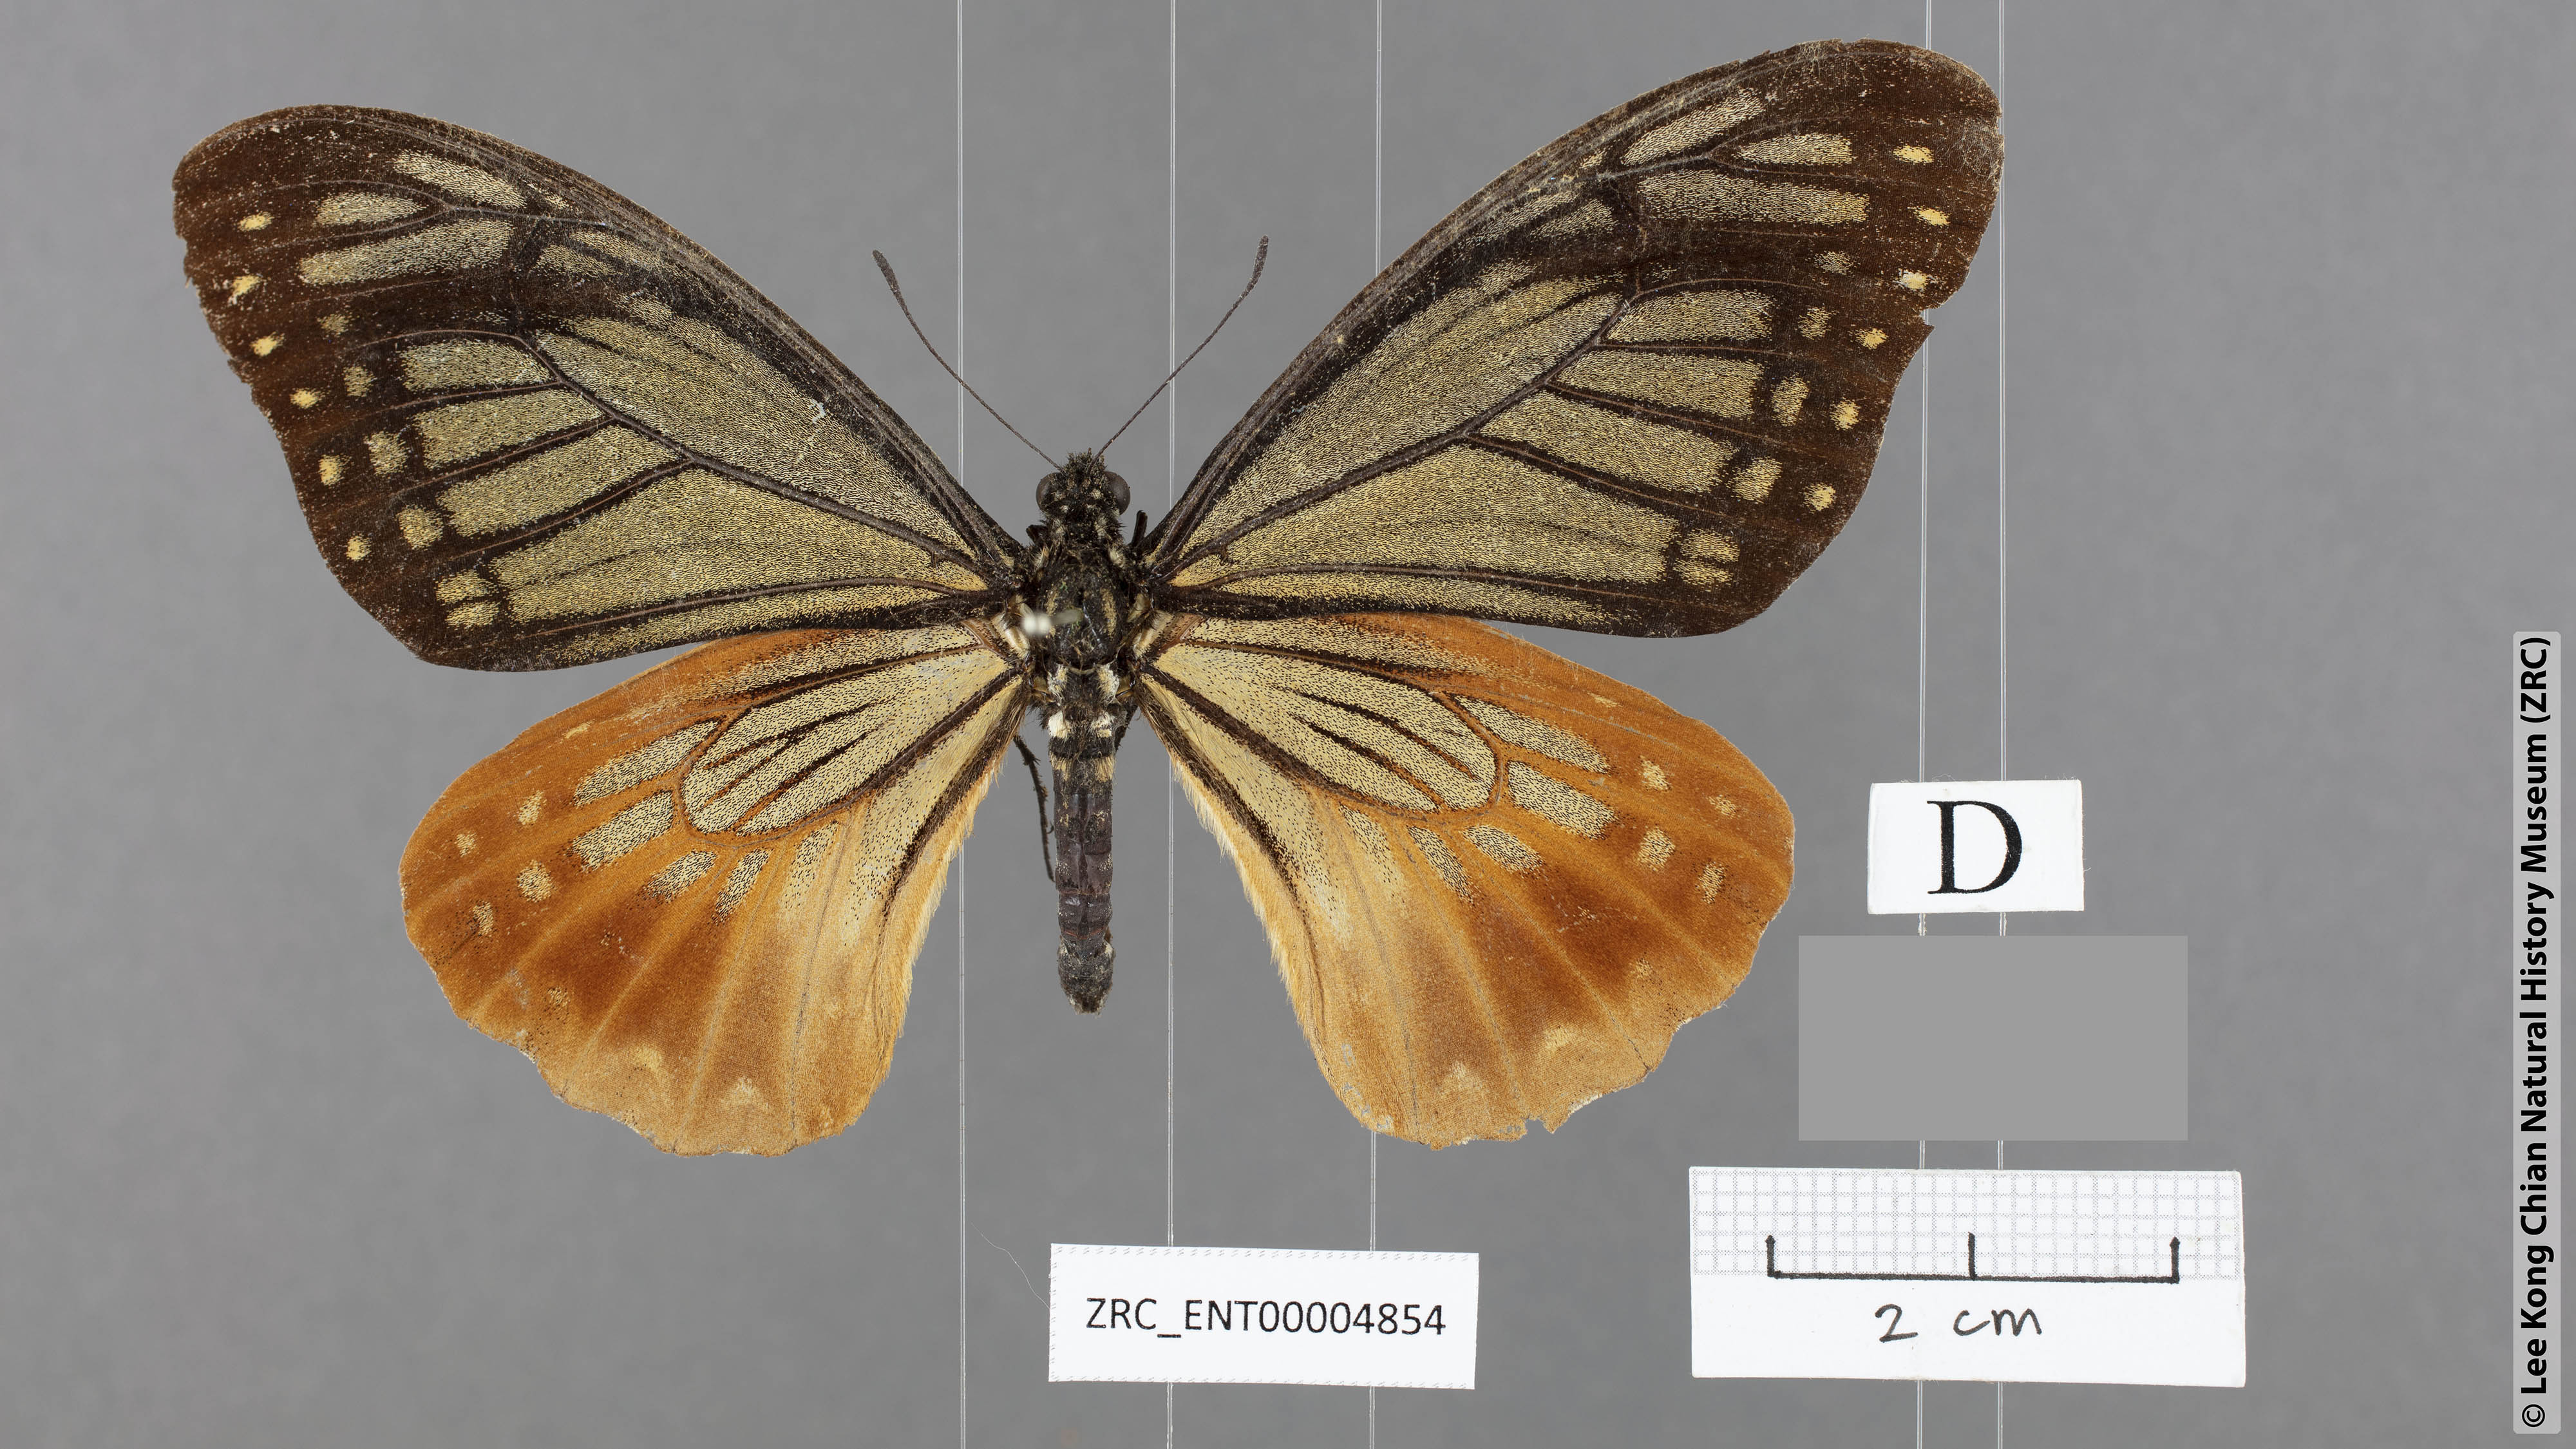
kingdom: Animalia
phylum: Arthropoda
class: Insecta
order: Lepidoptera
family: Papilionidae
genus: Chilasa
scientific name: Chilasa agestor
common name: Tawny mime
